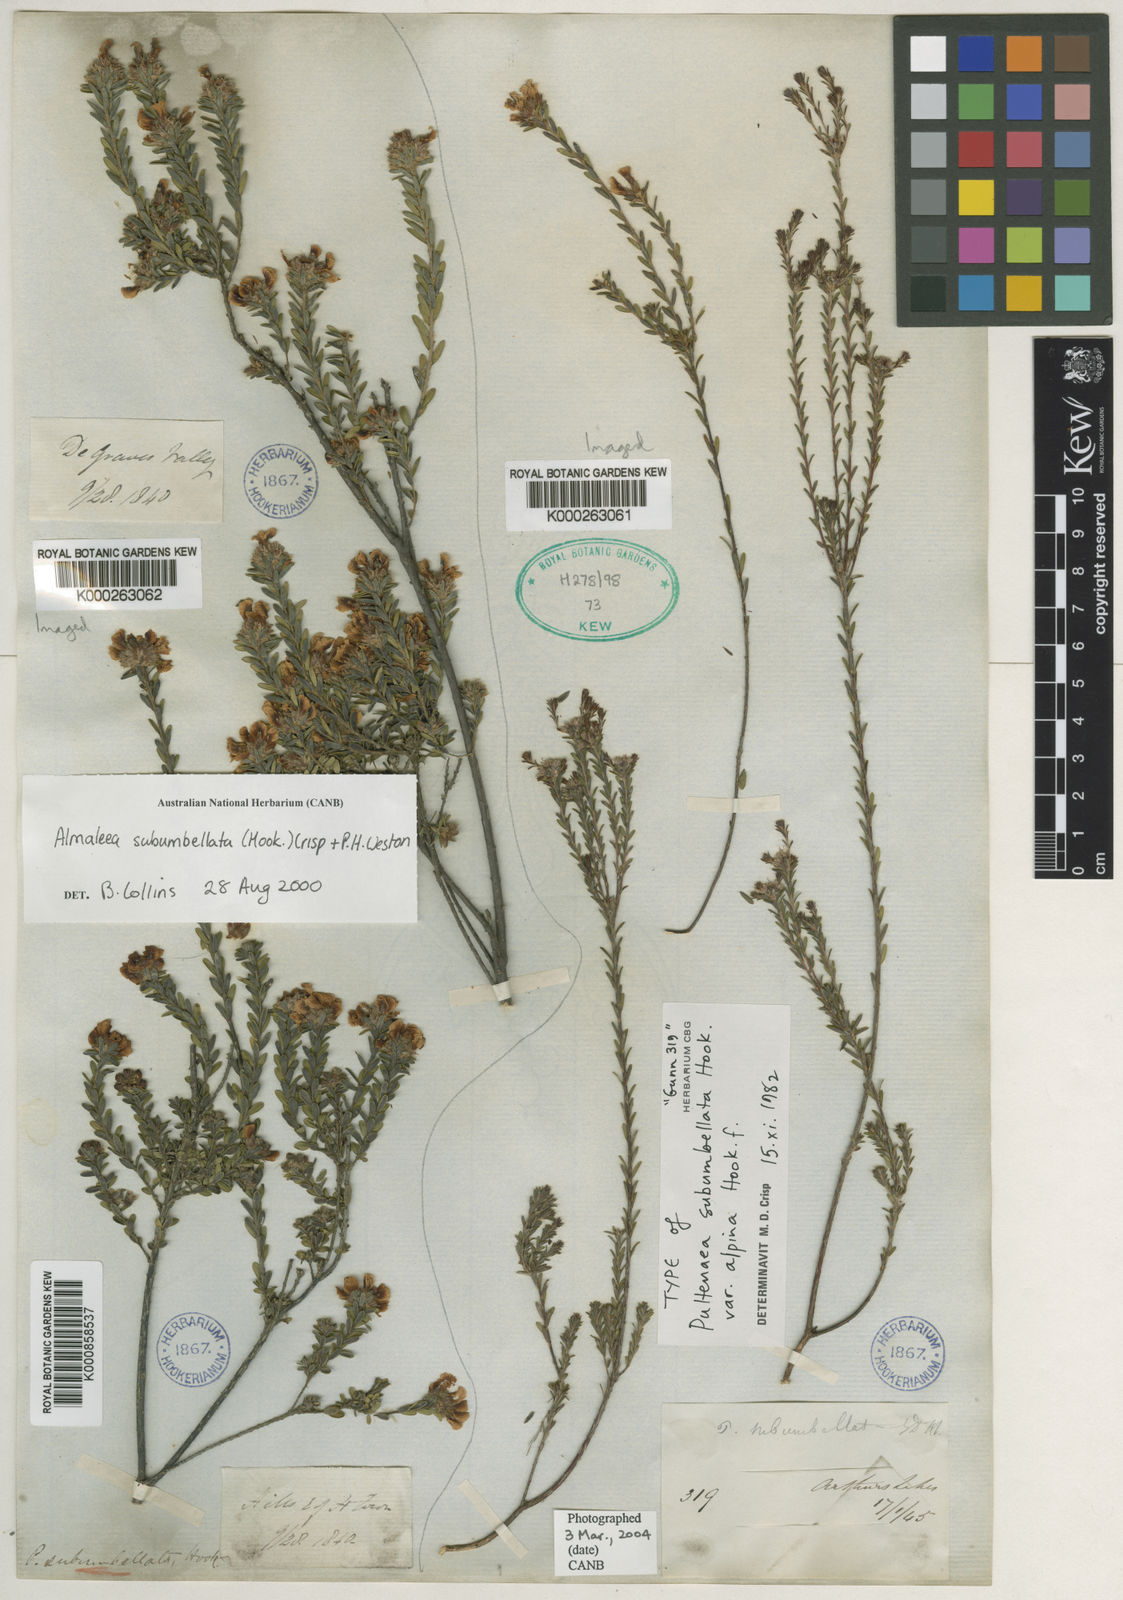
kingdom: Plantae
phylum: Tracheophyta
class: Magnoliopsida
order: Fabales
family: Fabaceae
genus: Almaleea
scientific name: Almaleea subumbellata
